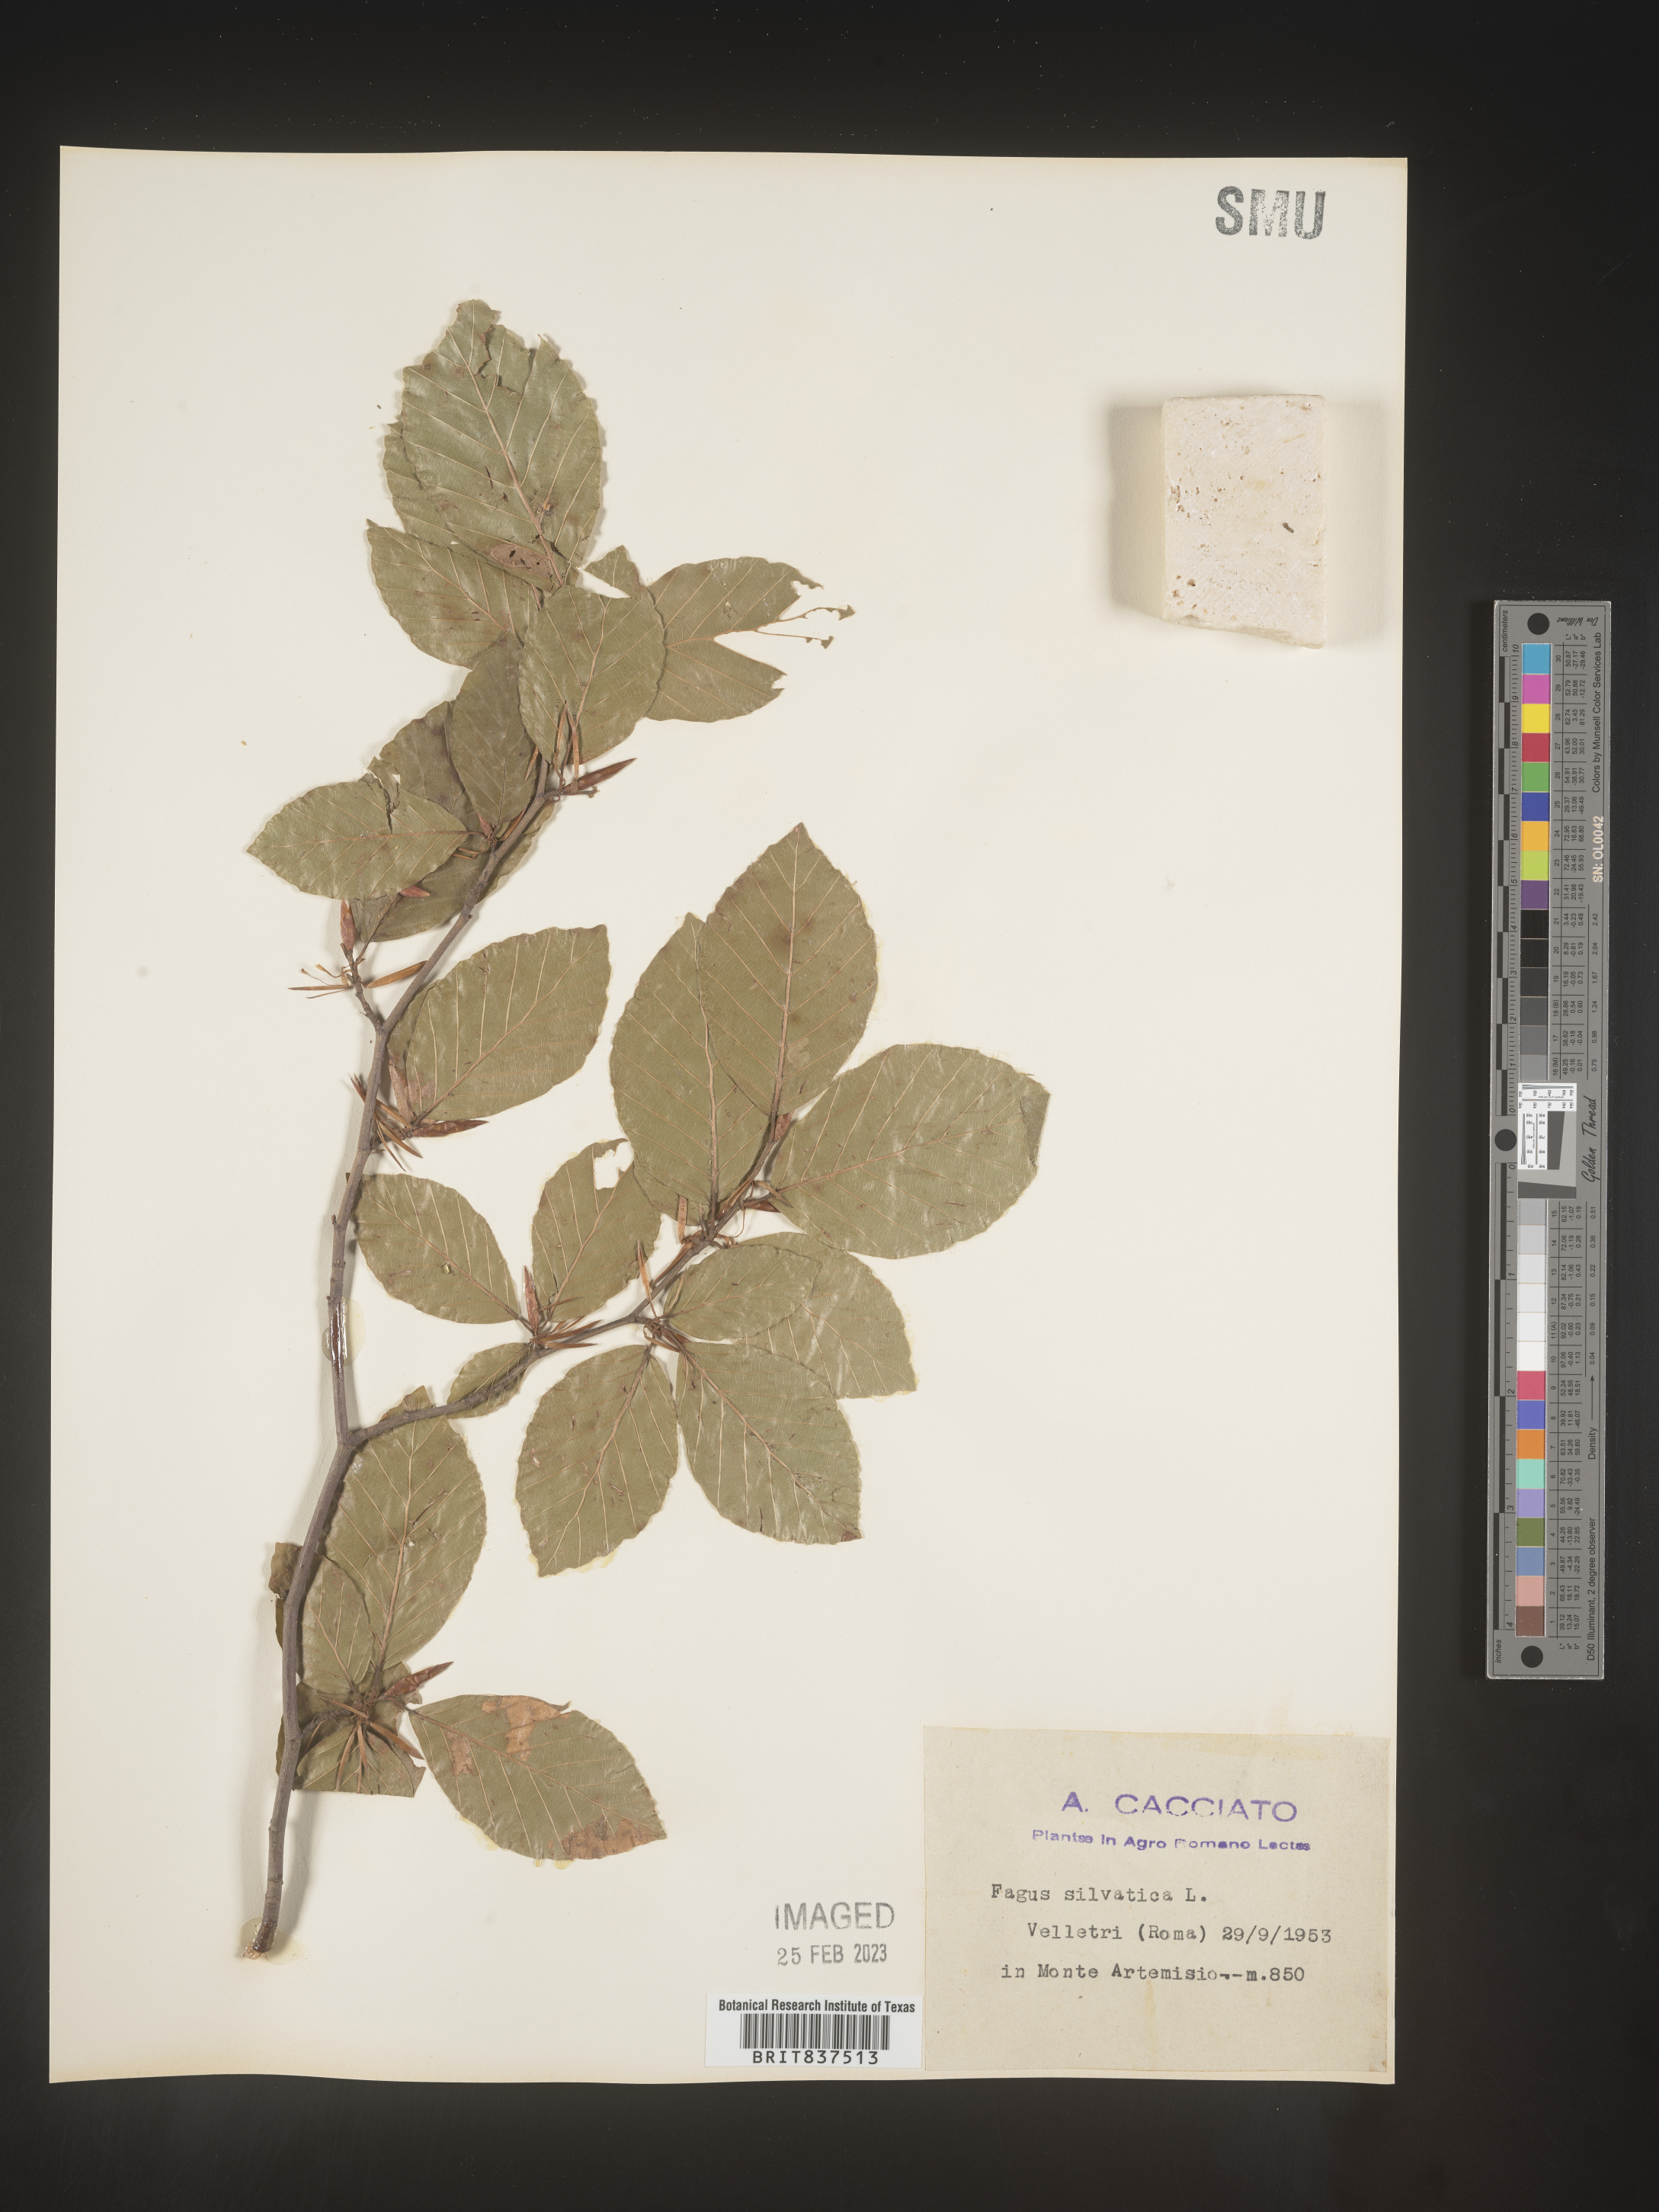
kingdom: Plantae
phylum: Tracheophyta
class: Magnoliopsida
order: Fagales
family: Fagaceae
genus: Fagus
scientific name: Fagus
